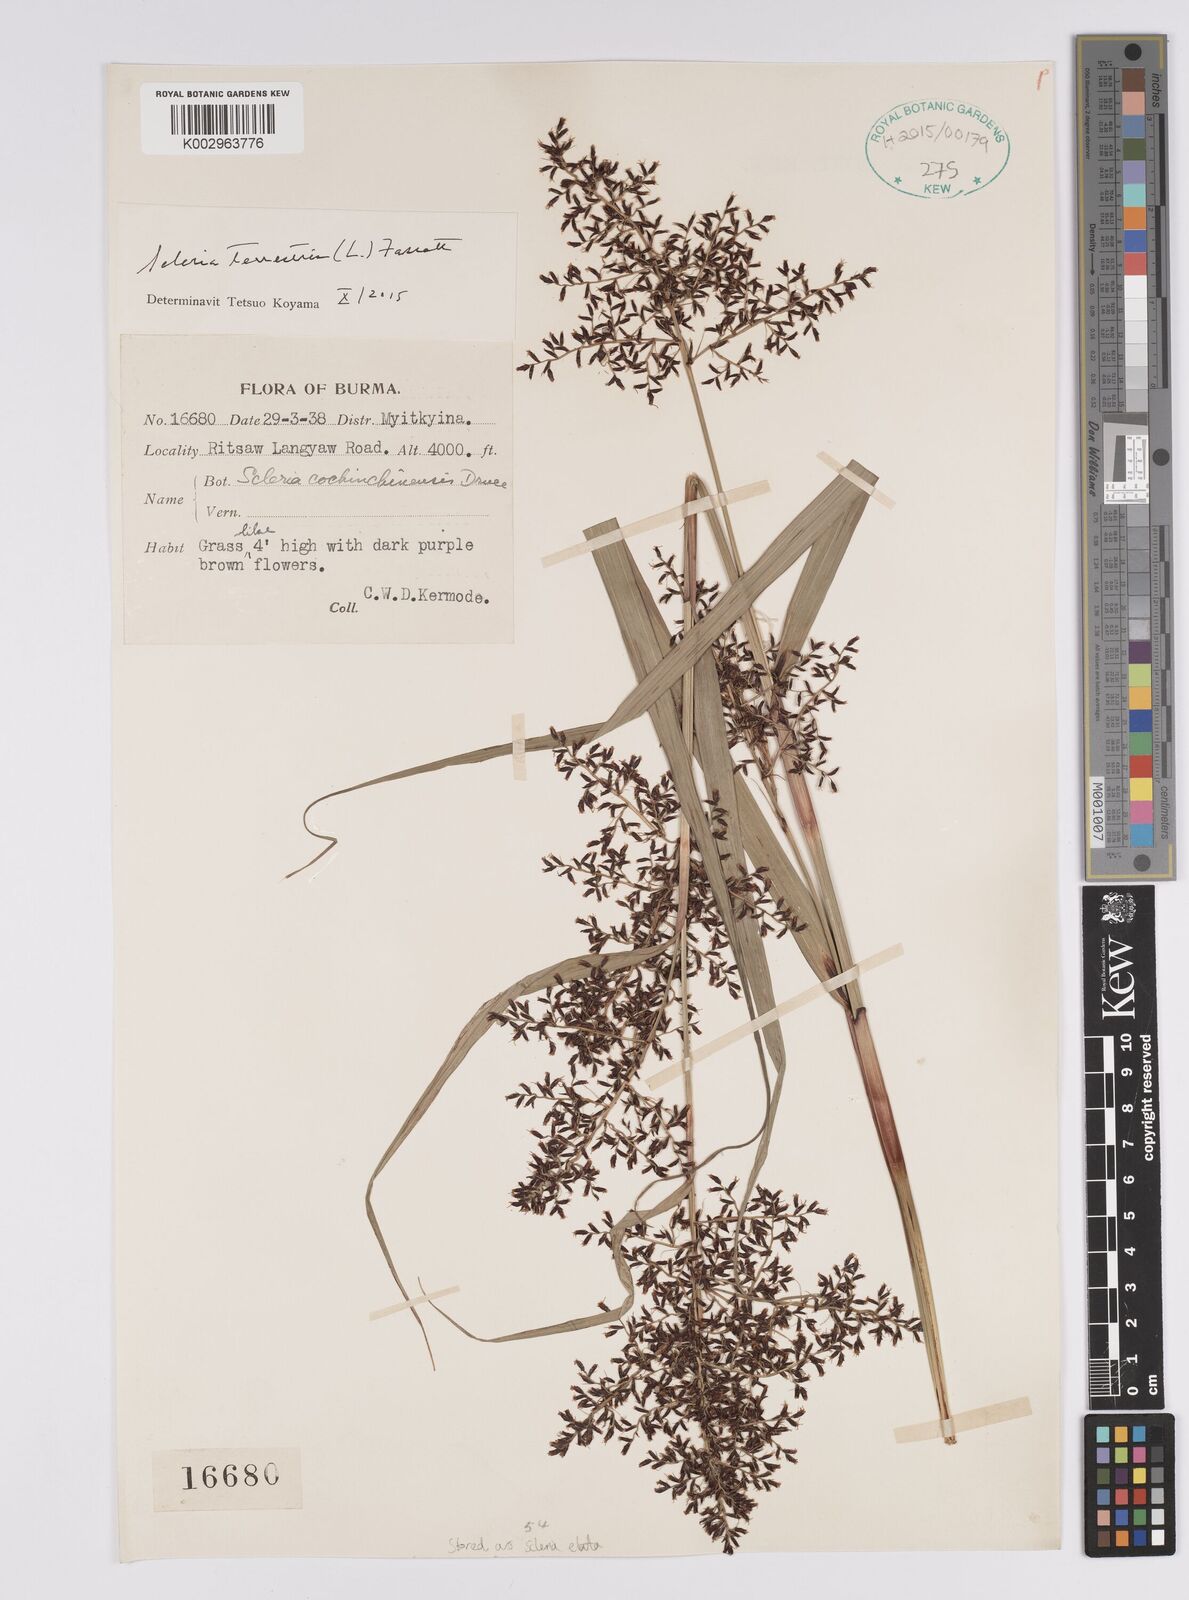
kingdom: Plantae
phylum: Tracheophyta
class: Liliopsida
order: Poales
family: Cyperaceae
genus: Scleria
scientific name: Scleria terrestris
